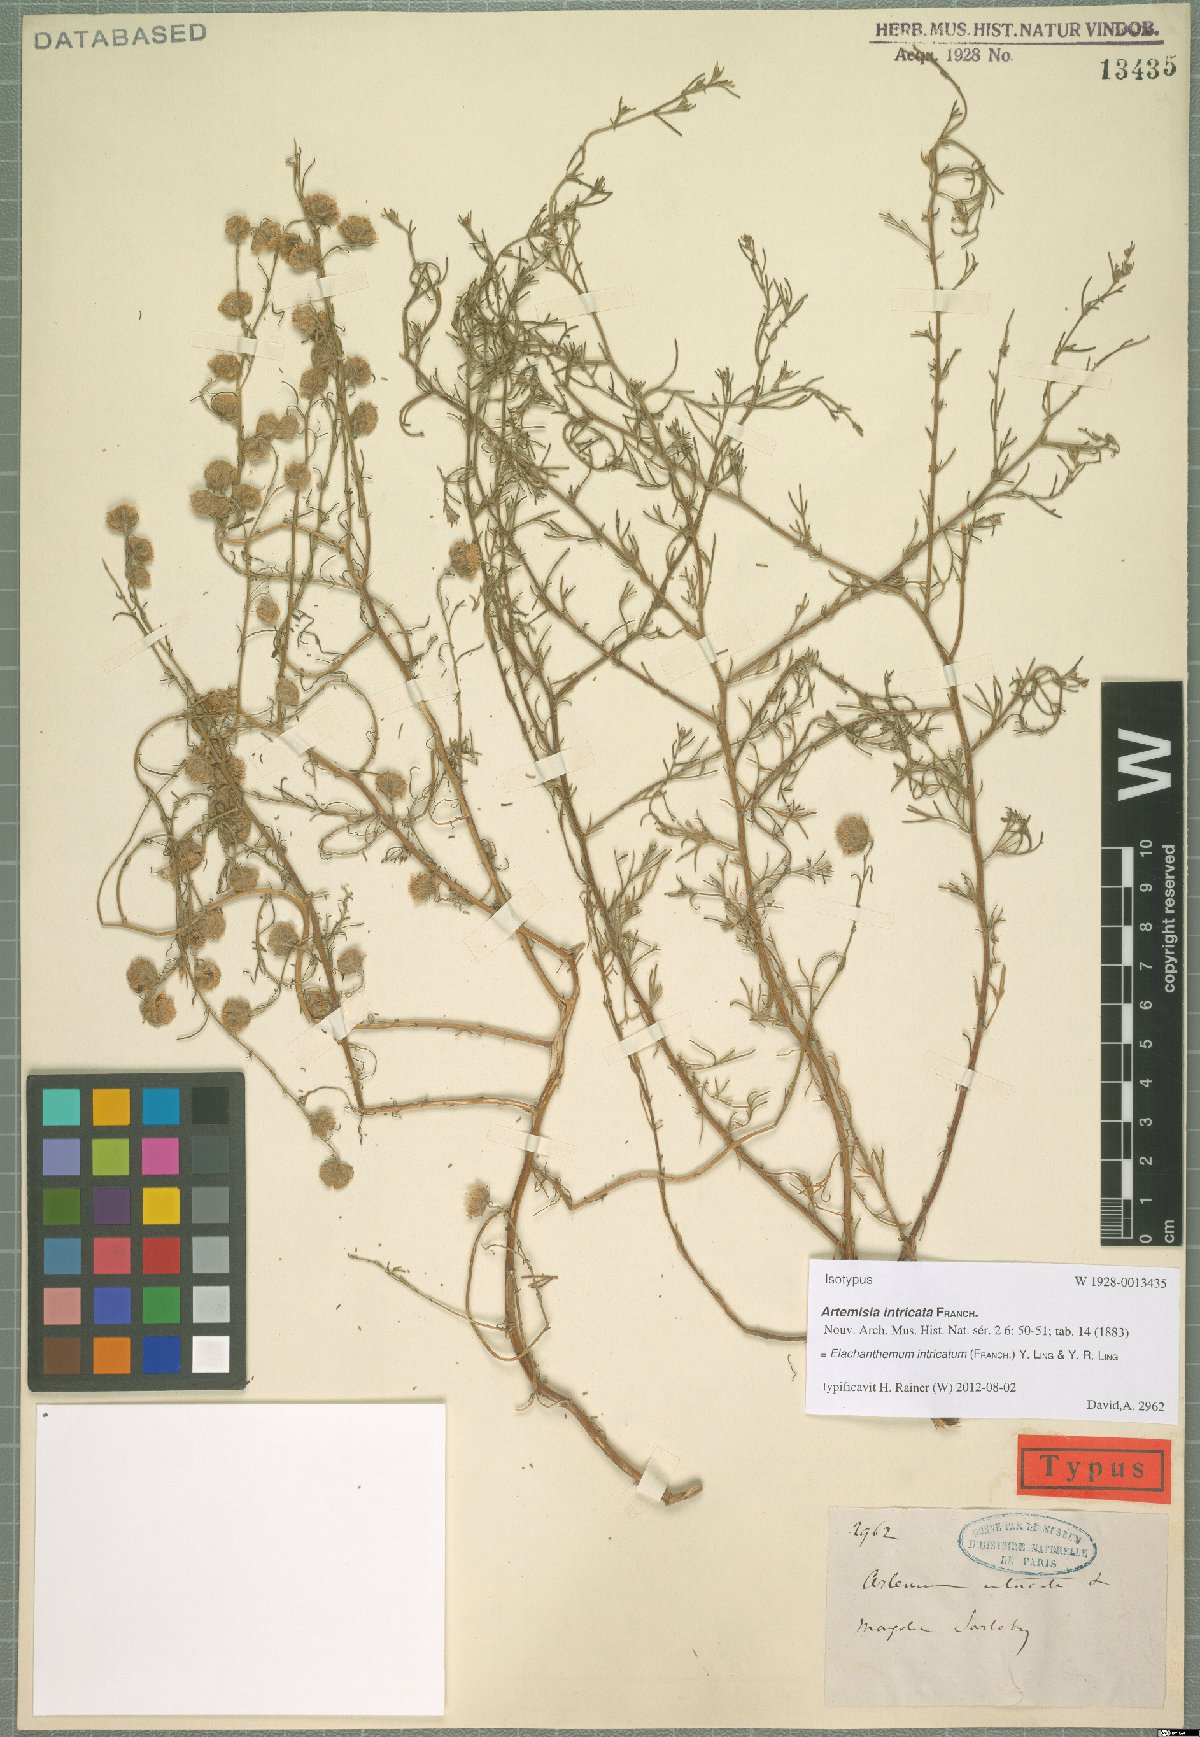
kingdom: Plantae
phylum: Tracheophyta
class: Magnoliopsida
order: Asterales
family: Asteraceae
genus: Elachanthemum
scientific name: Elachanthemum intricatum
